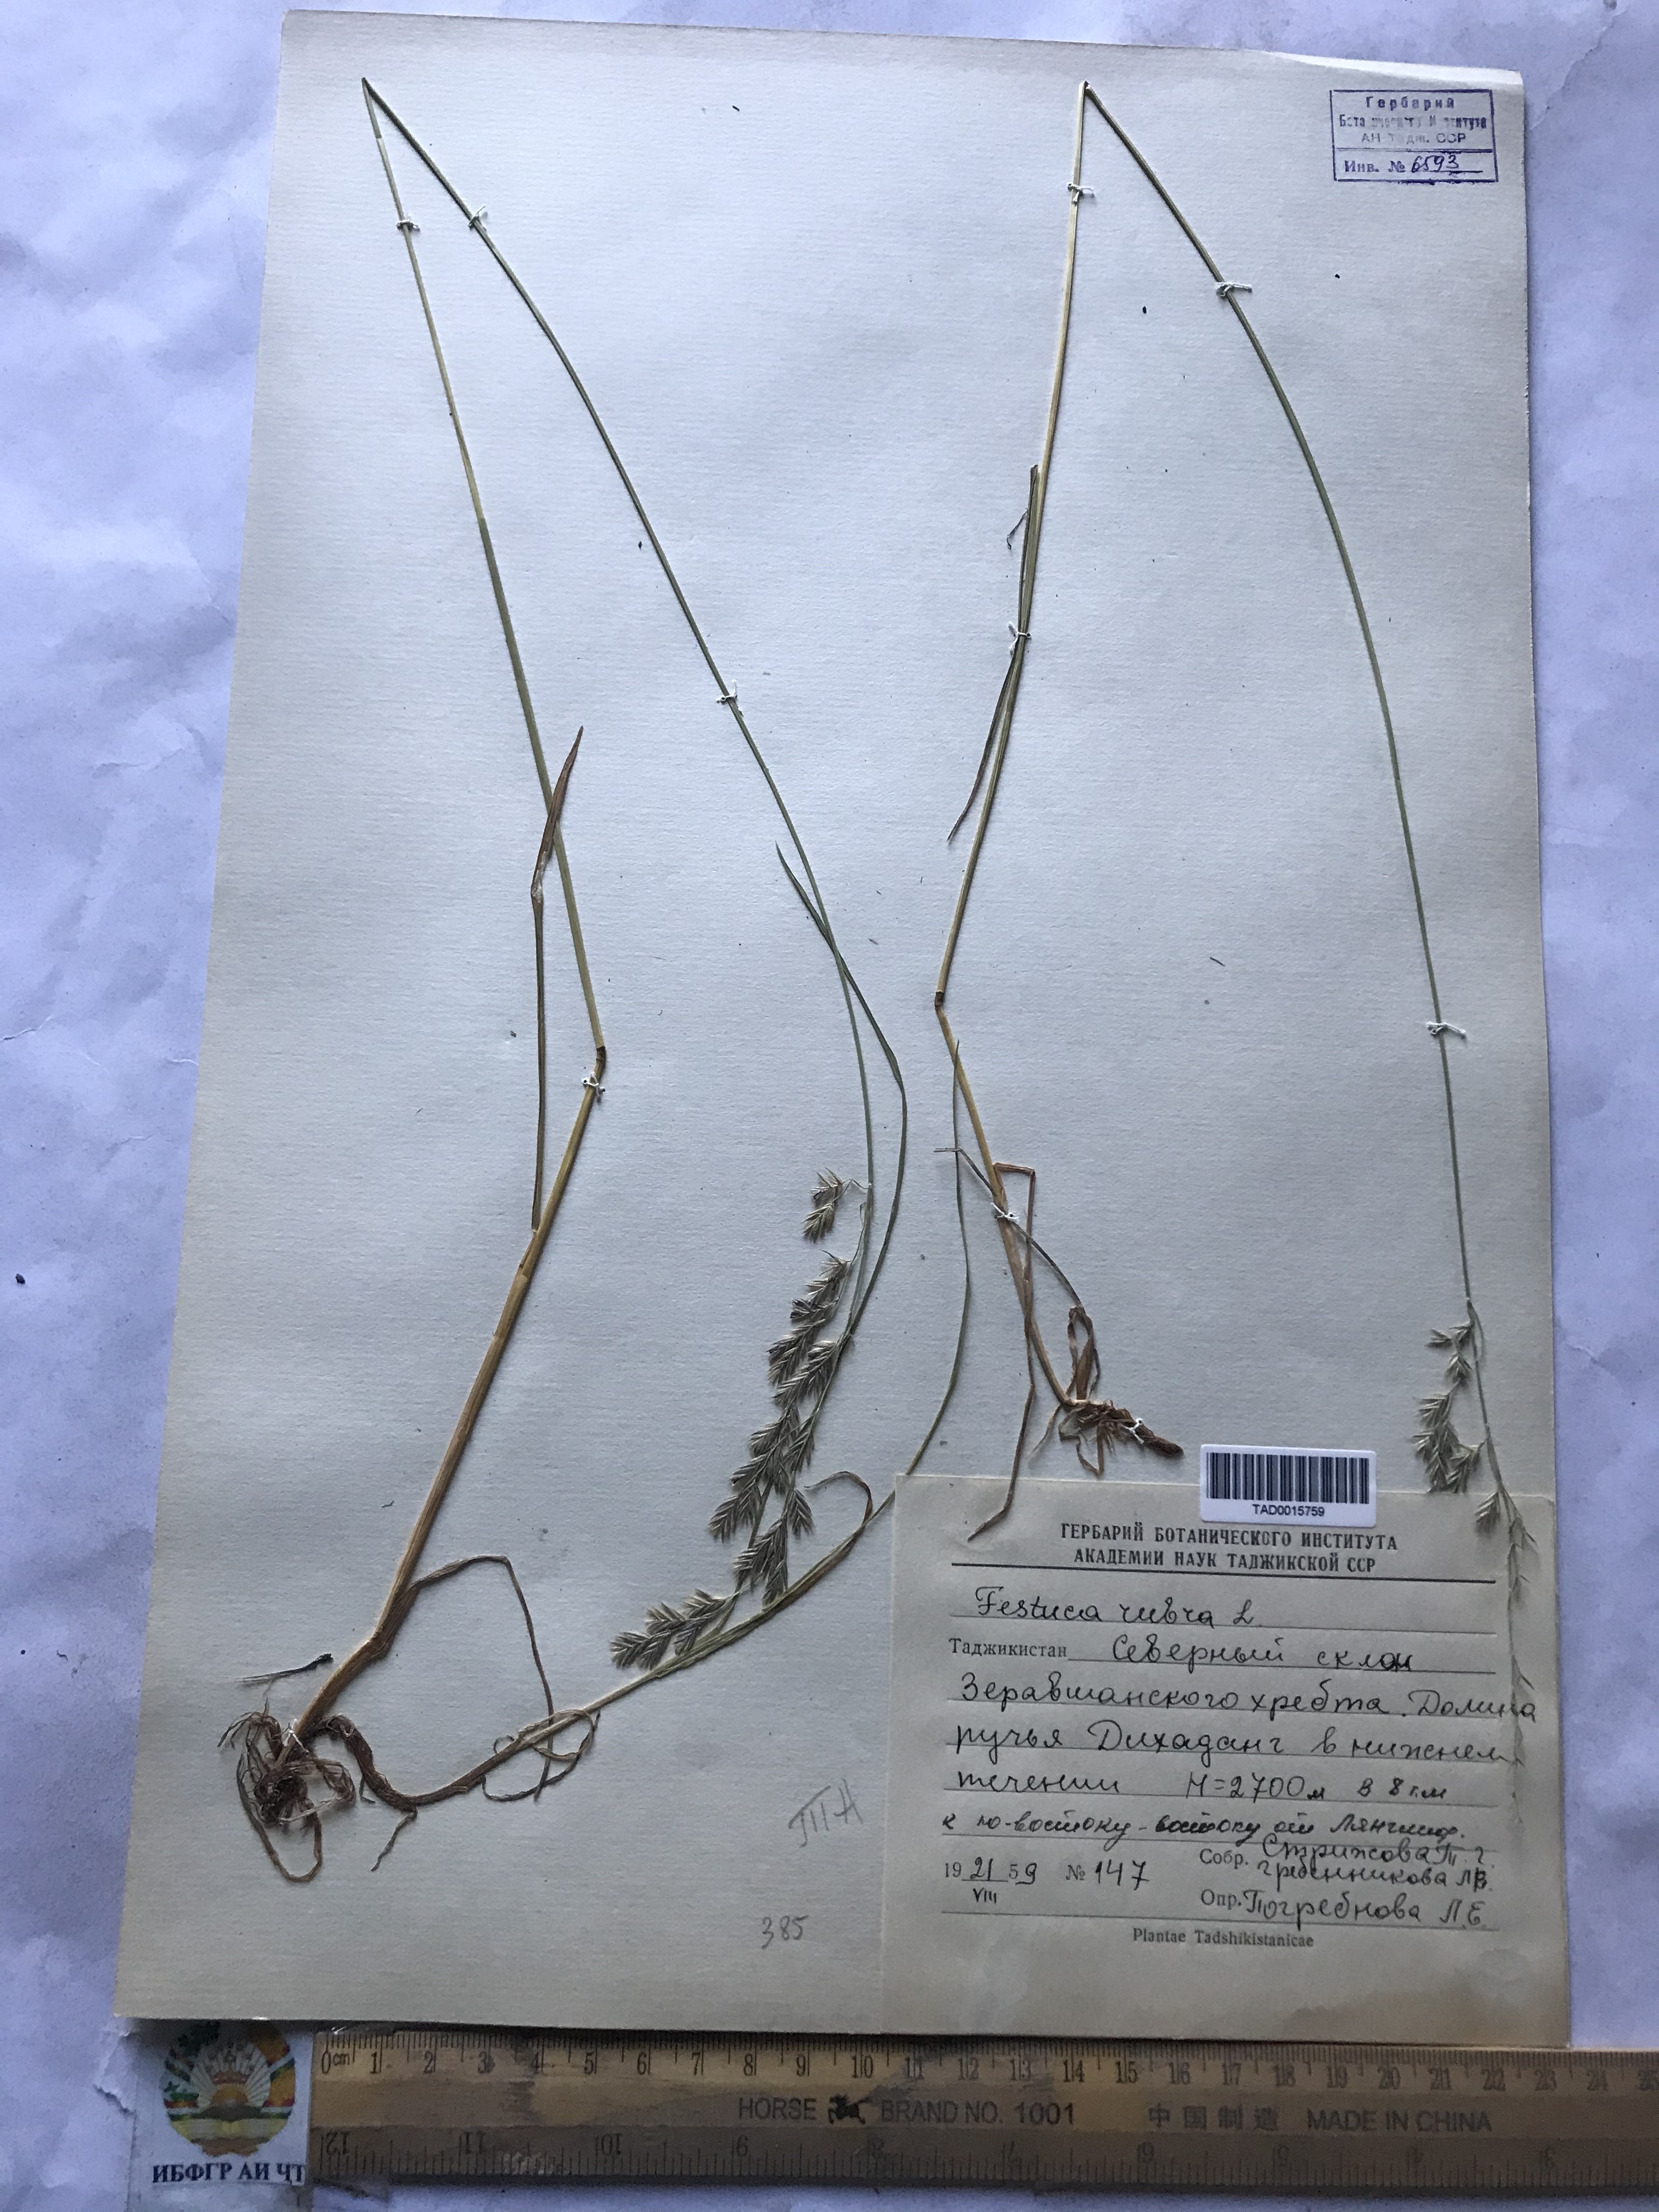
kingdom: Plantae
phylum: Tracheophyta
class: Liliopsida
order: Poales
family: Poaceae
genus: Festuca
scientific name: Festuca rubra
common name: Red fescue
